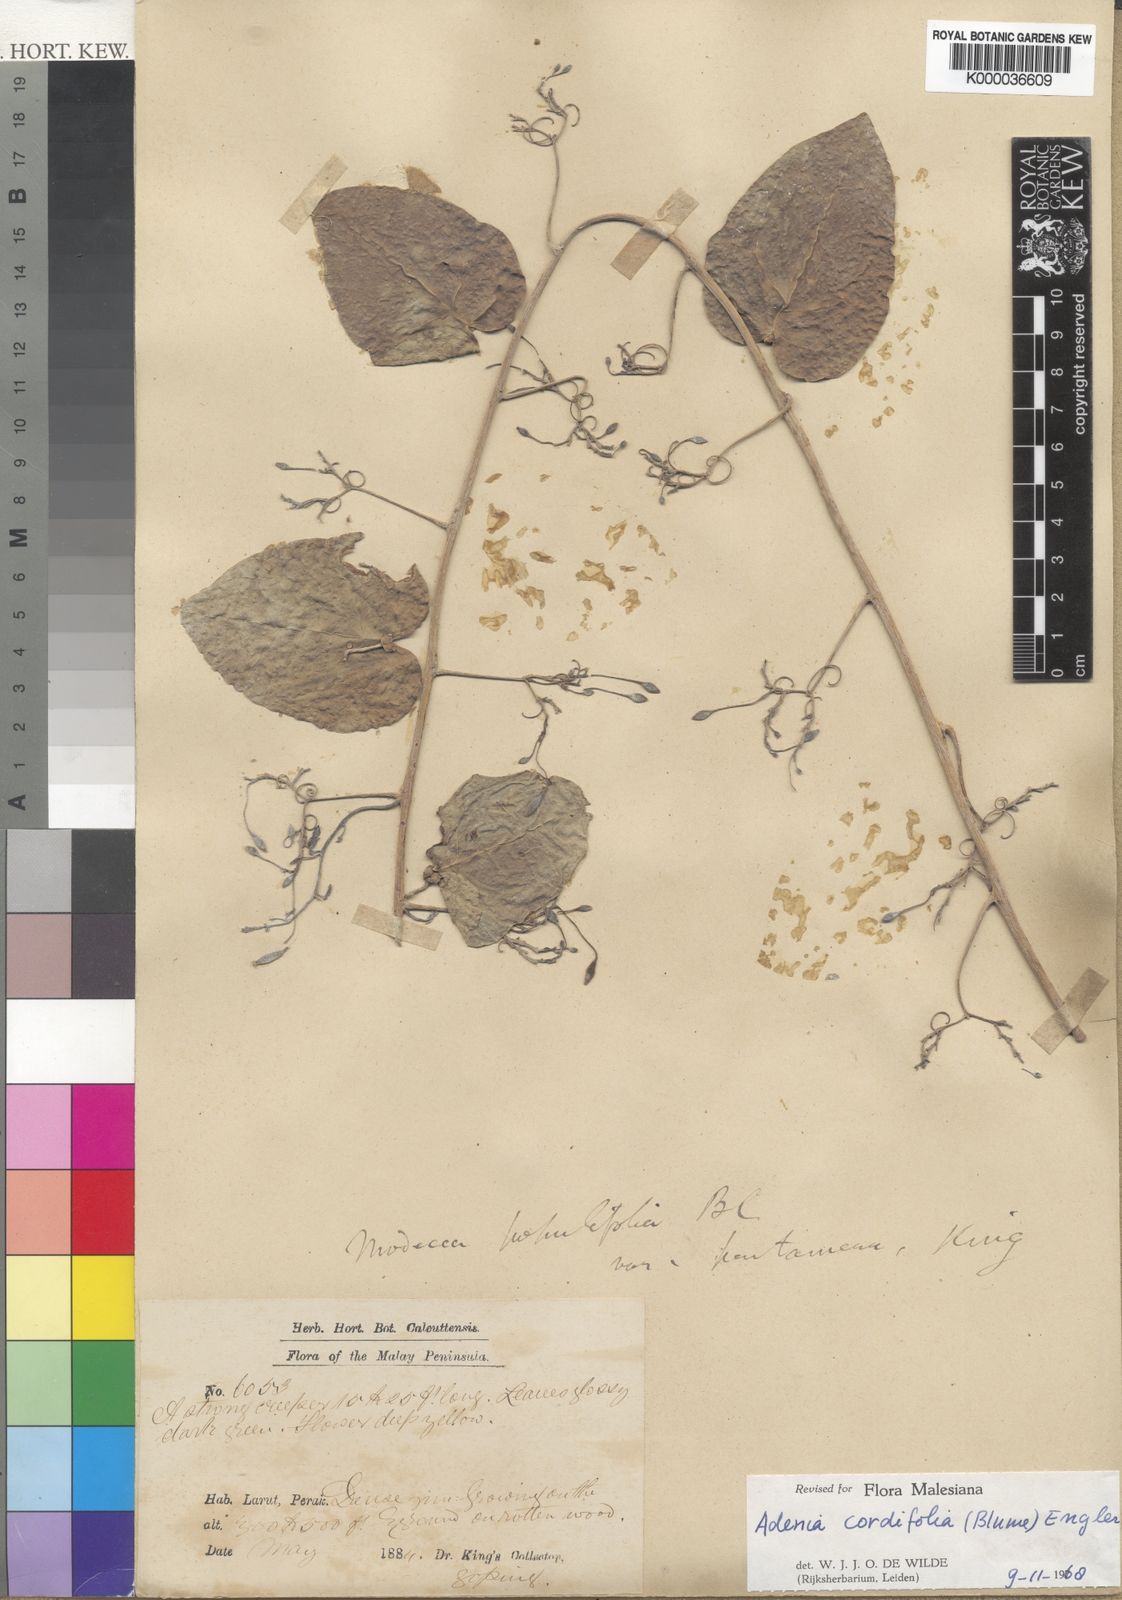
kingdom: Plantae
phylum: Tracheophyta
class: Magnoliopsida
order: Malpighiales
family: Passifloraceae
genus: Adenia
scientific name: Adenia cordifolia
